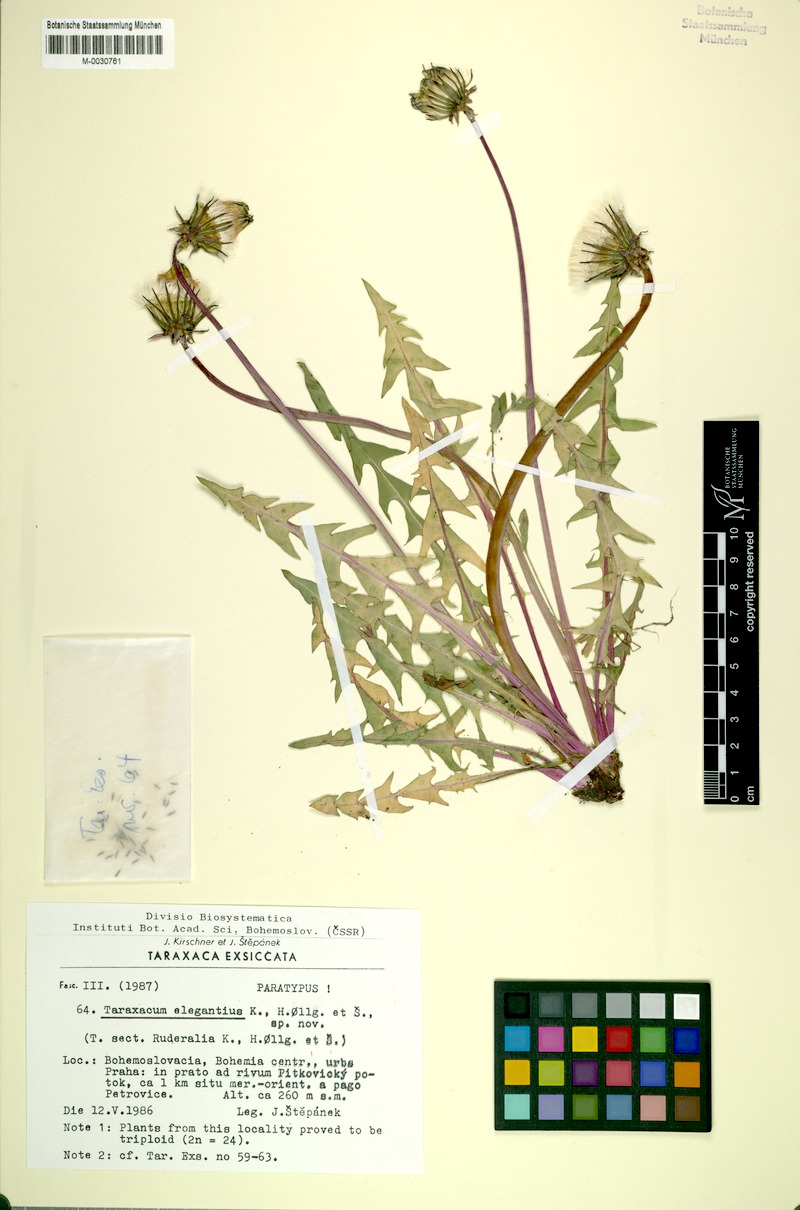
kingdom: Plantae
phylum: Tracheophyta
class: Magnoliopsida
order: Asterales
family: Asteraceae
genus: Taraxacum
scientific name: Taraxacum elegantius
